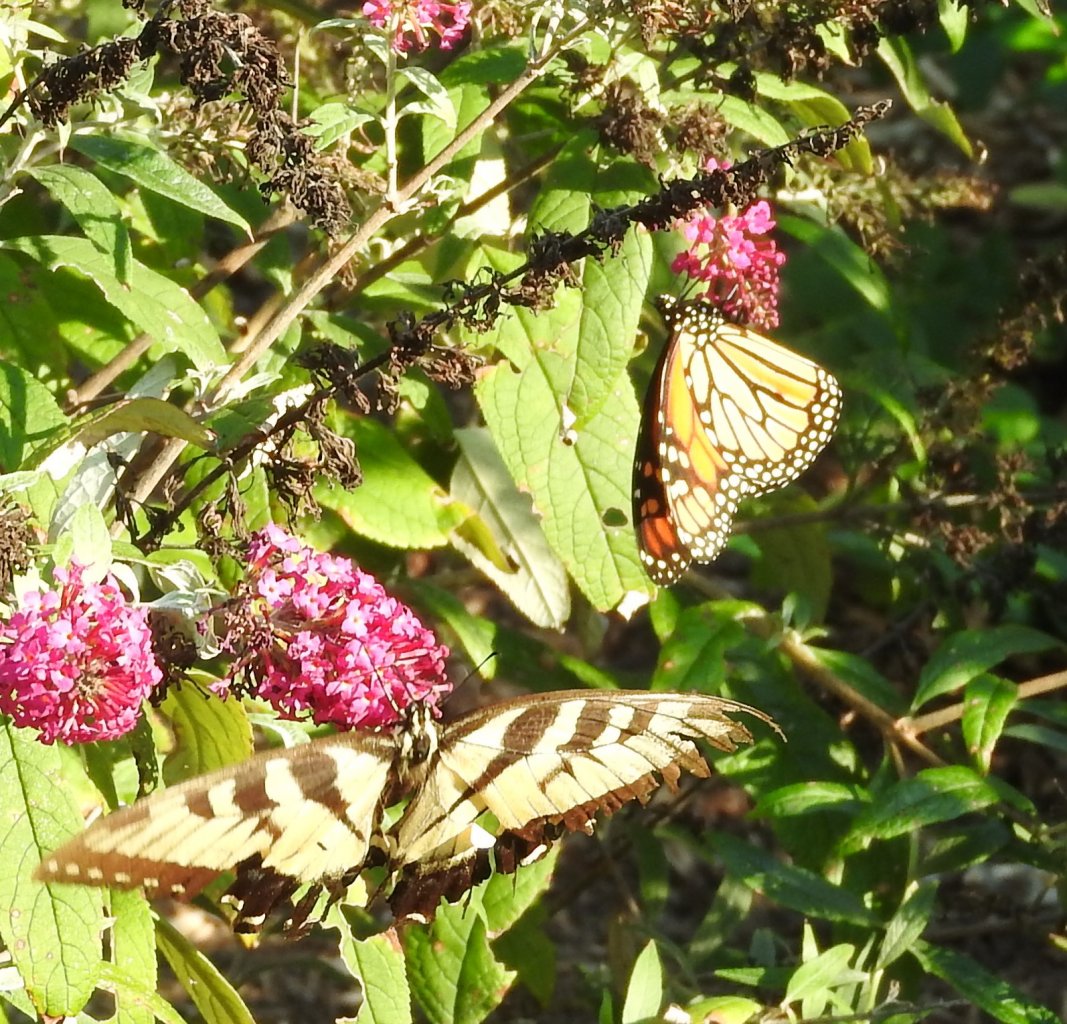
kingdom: Animalia
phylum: Arthropoda
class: Insecta
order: Lepidoptera
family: Nymphalidae
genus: Danaus
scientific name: Danaus plexippus
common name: Monarch
